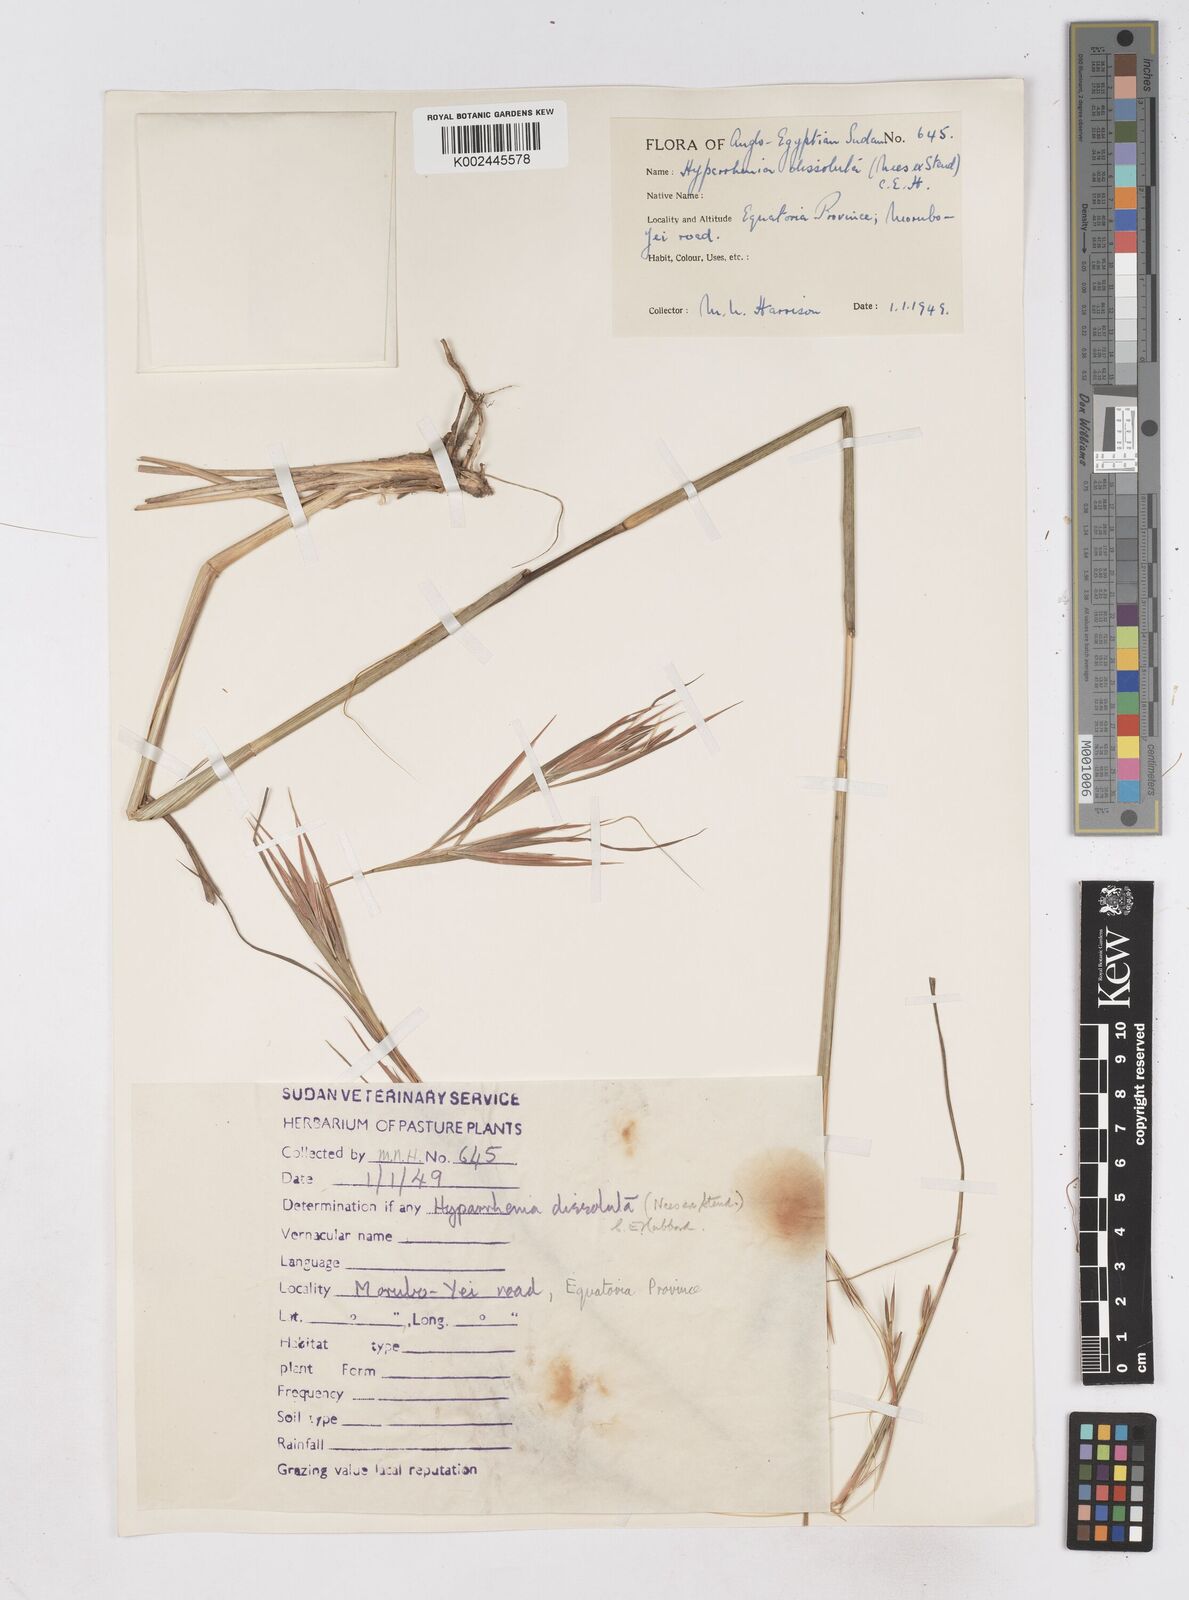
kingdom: Plantae
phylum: Tracheophyta
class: Liliopsida
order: Poales
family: Poaceae
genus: Hyperthelia
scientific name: Hyperthelia dissoluta
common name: Yellow thatching grass
